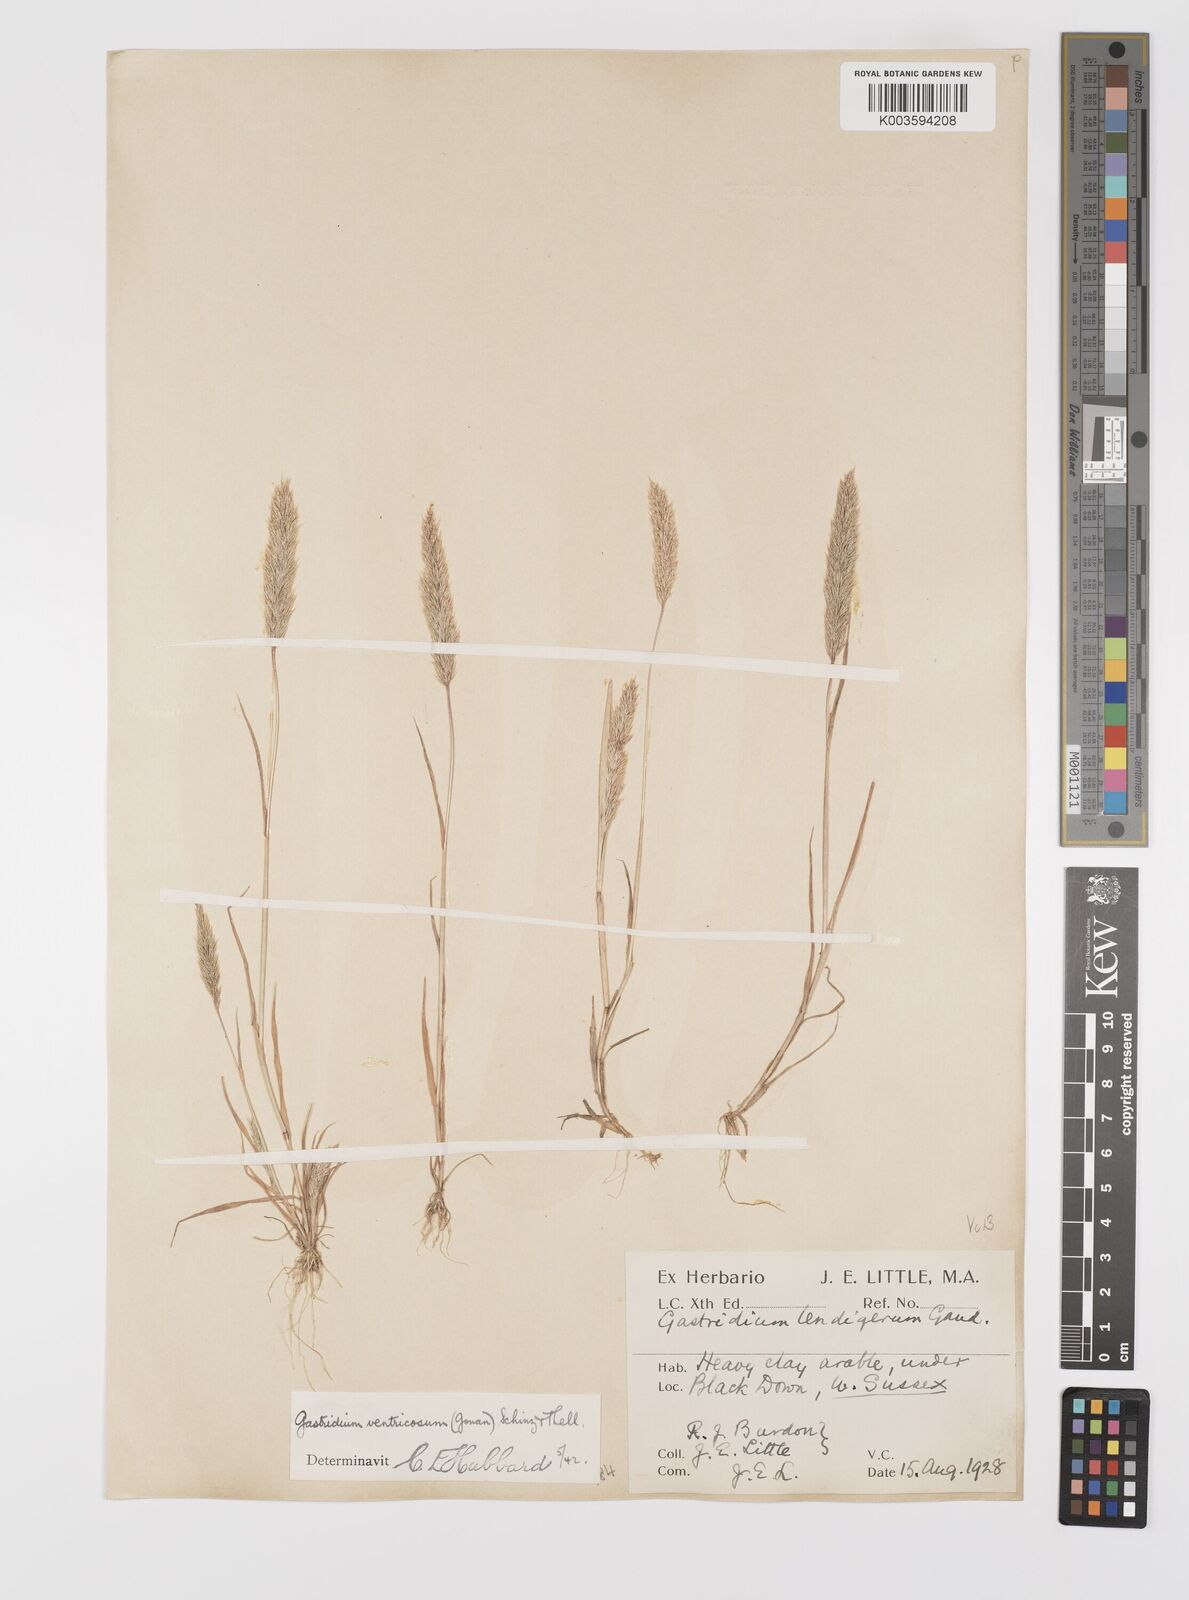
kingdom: Plantae
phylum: Tracheophyta
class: Liliopsida
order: Poales
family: Poaceae
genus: Gastridium
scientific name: Gastridium ventricosum
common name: Nit-grass
